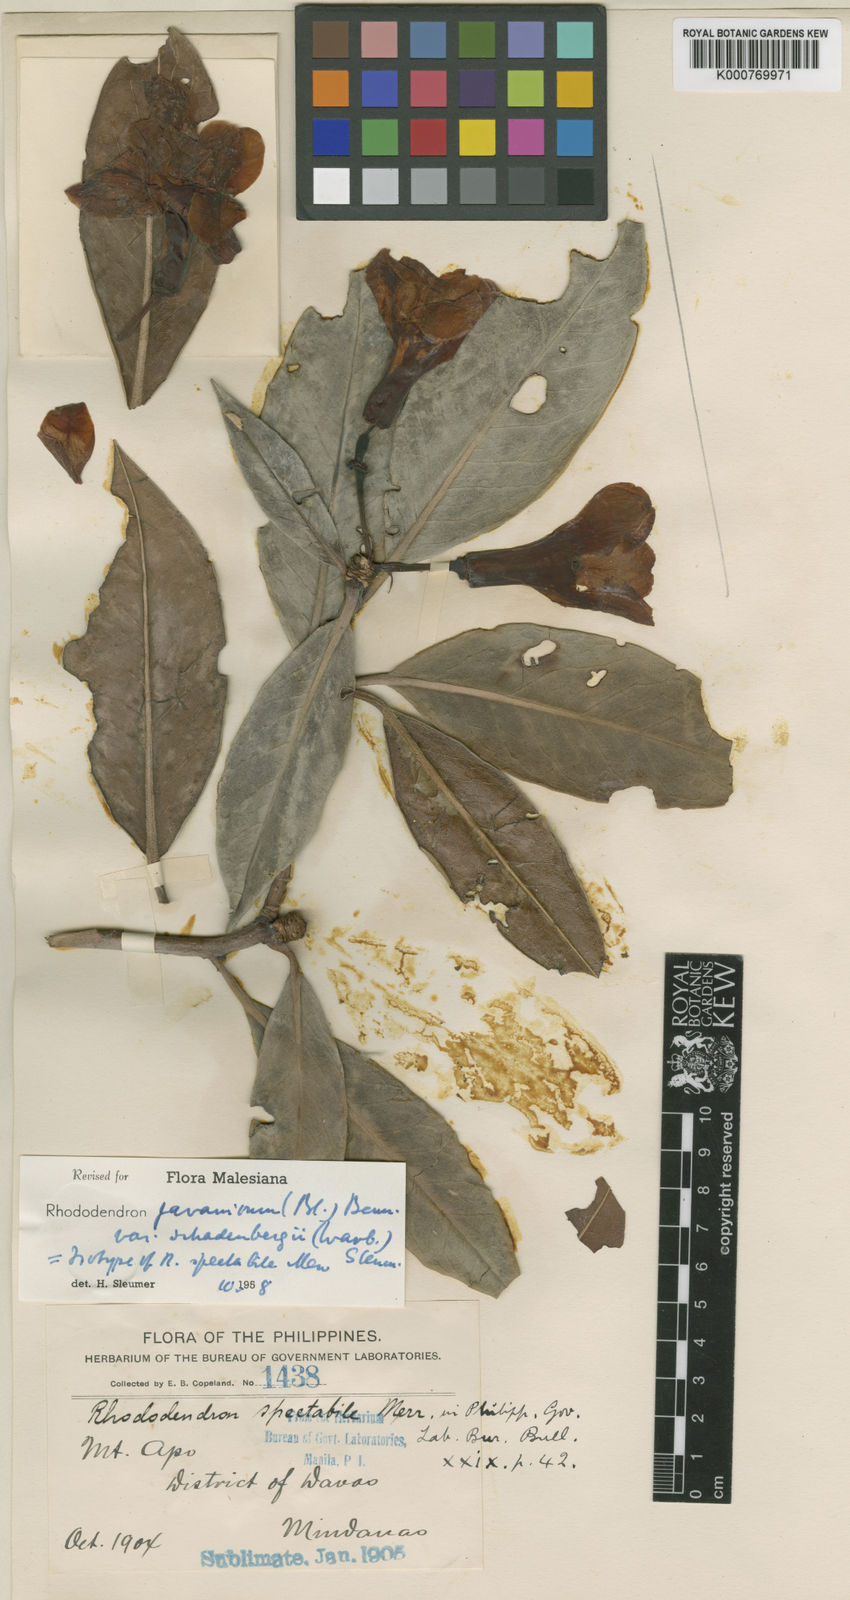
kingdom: Plantae
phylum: Tracheophyta
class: Magnoliopsida
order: Ericales
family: Ericaceae
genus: Rhododendron
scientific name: Rhododendron javanicum
